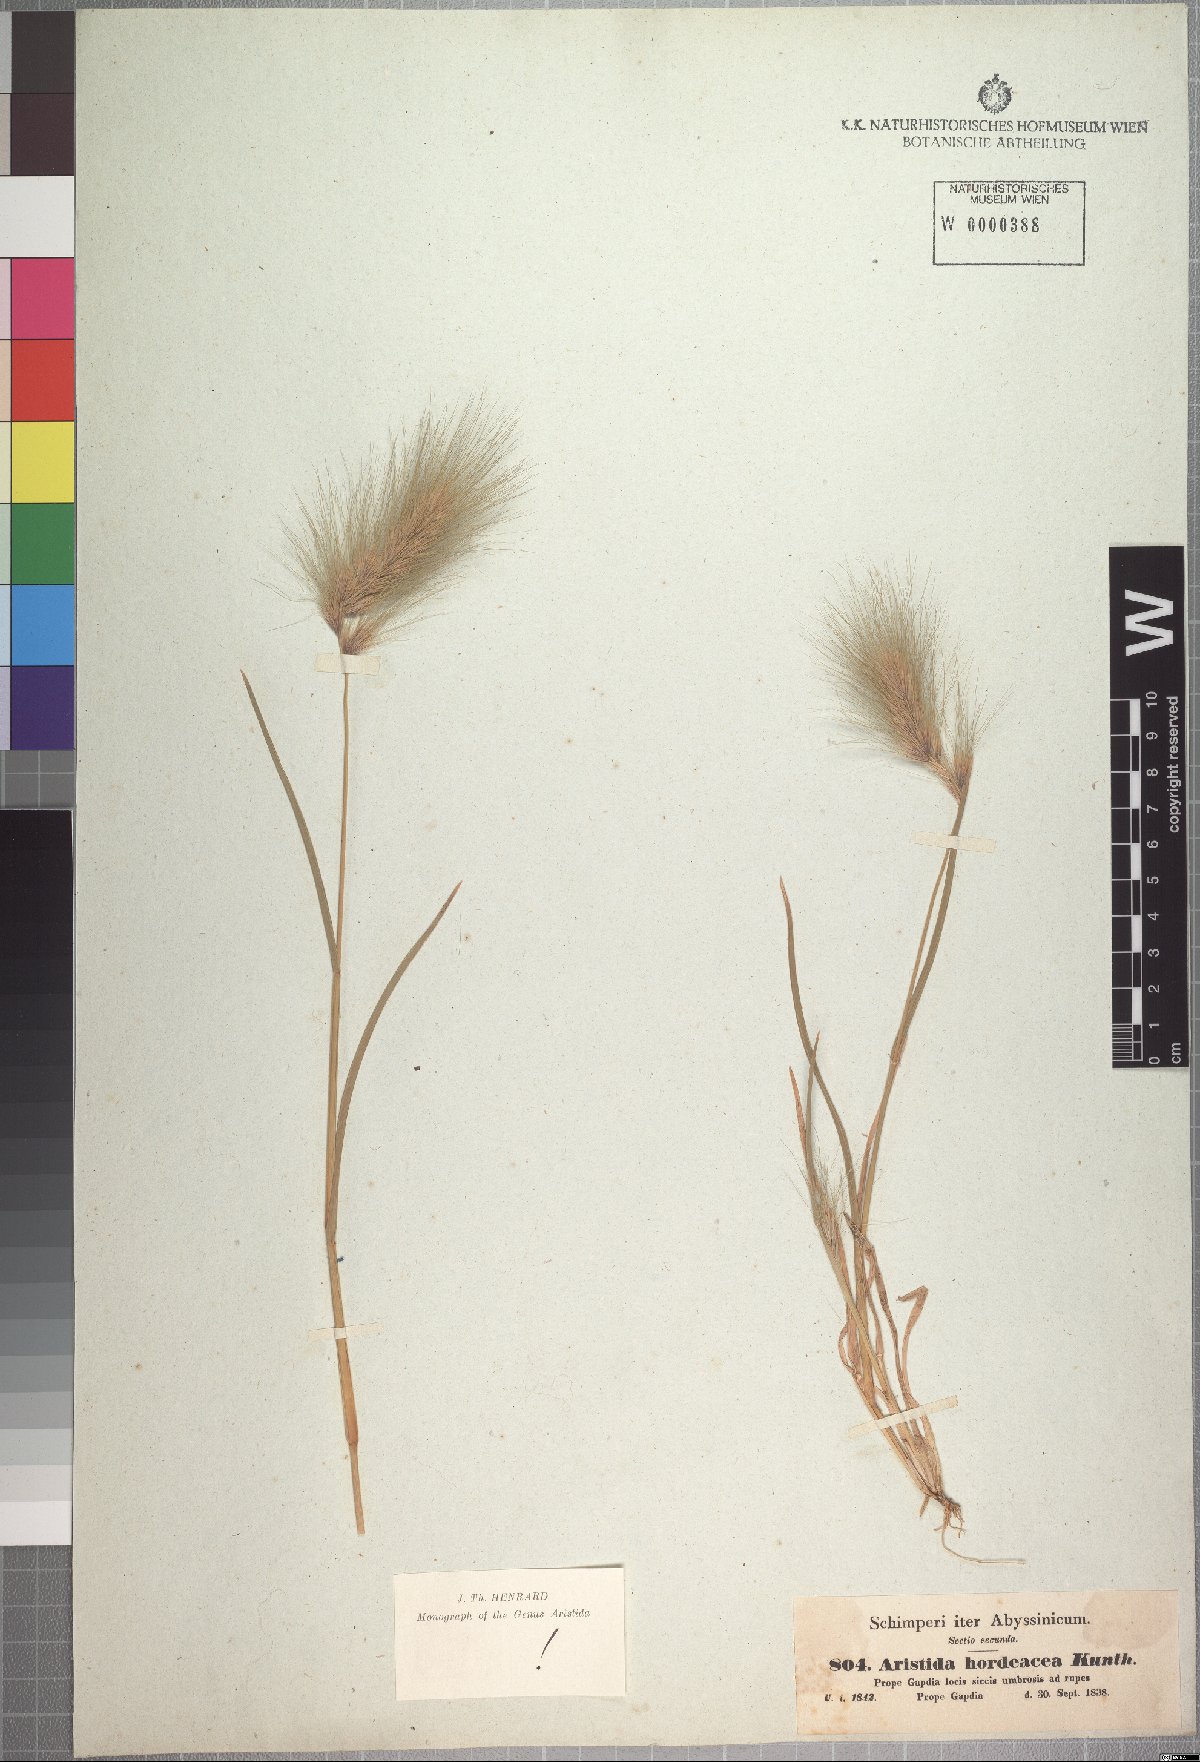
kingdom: Plantae
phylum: Tracheophyta
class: Liliopsida
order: Poales
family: Poaceae
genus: Aristida
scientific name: Aristida hordeacea
